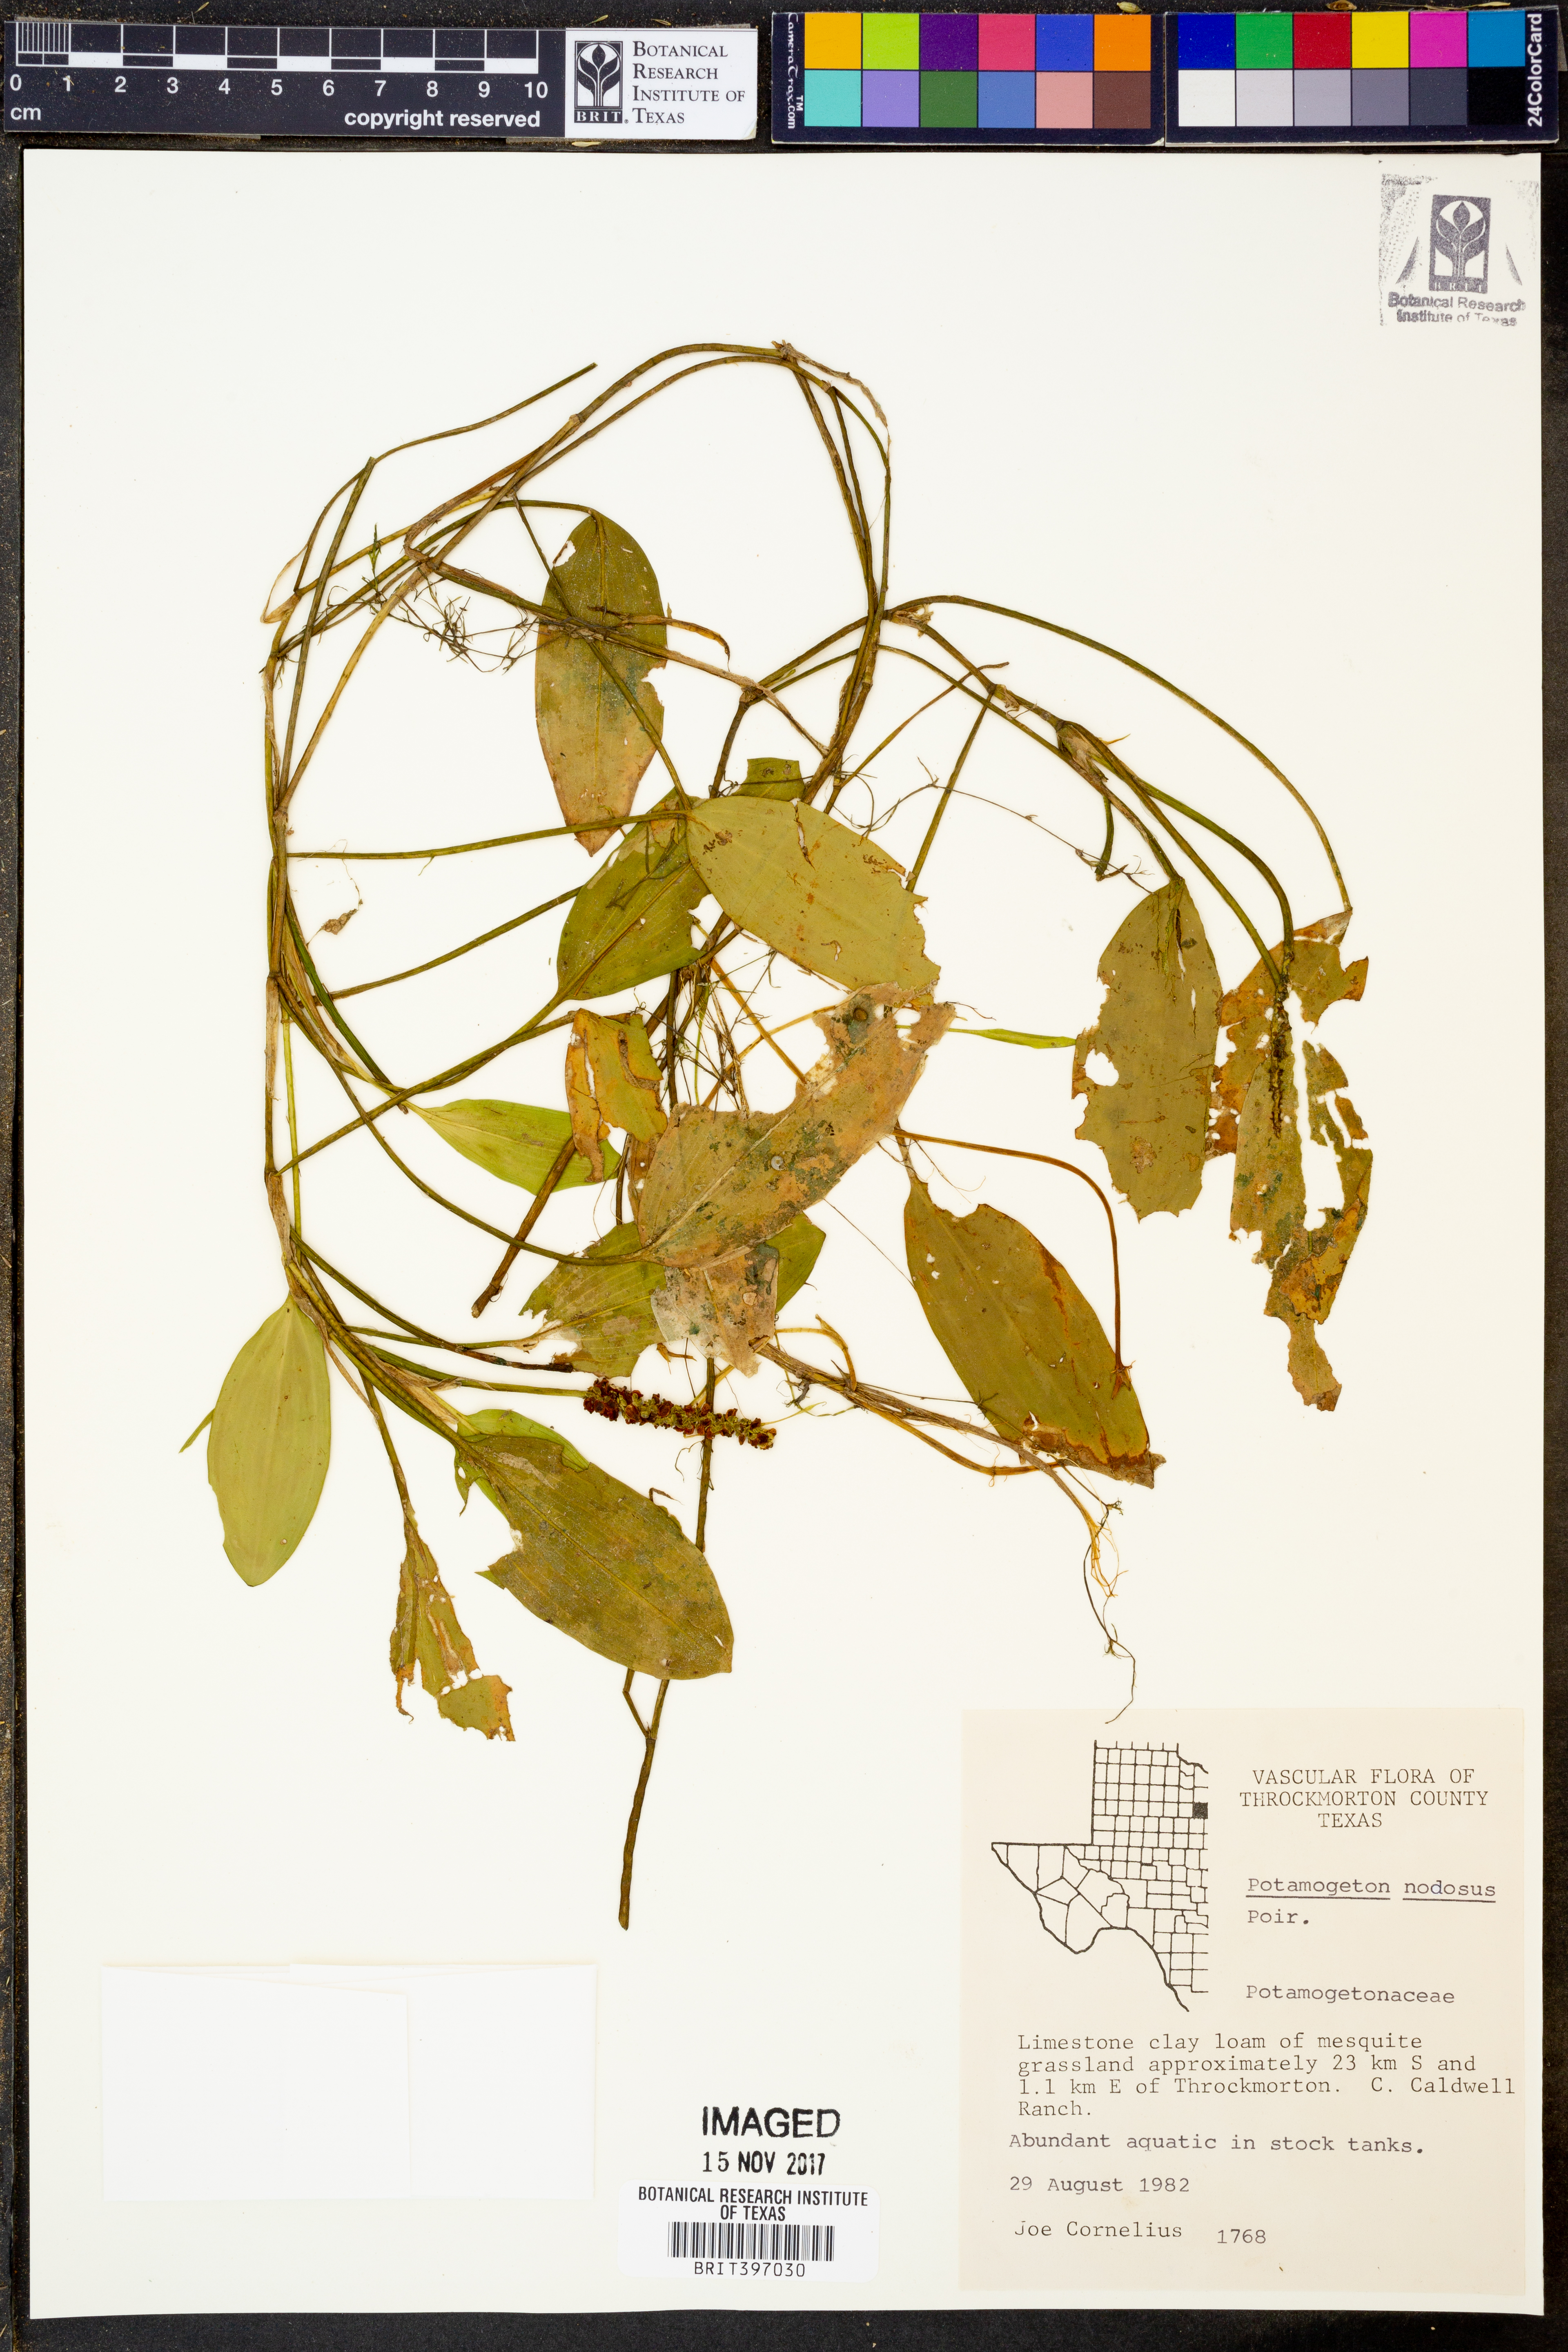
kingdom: Plantae
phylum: Tracheophyta
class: Liliopsida
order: Alismatales
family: Potamogetonaceae
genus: Potamogeton
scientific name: Potamogeton nodosus
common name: Loddon pondweed
